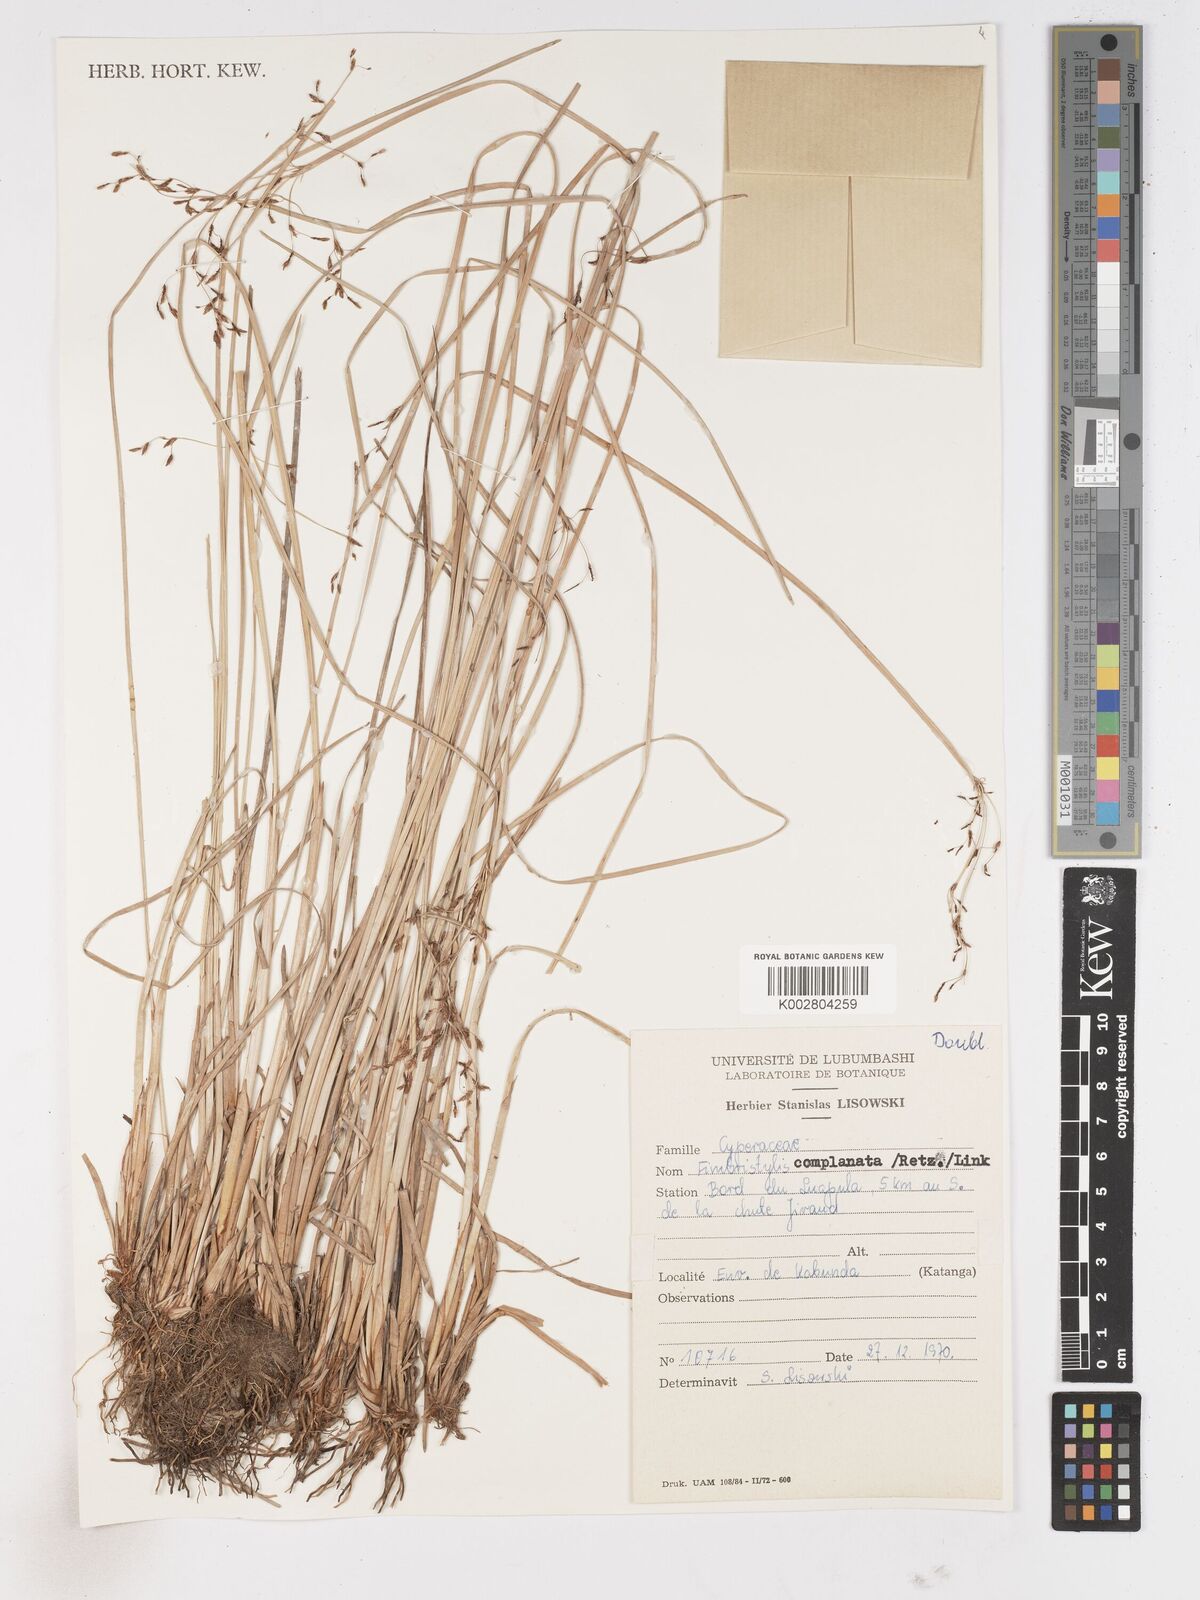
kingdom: Plantae
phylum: Tracheophyta
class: Liliopsida
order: Poales
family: Cyperaceae
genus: Fimbristylis
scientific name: Fimbristylis complanata
